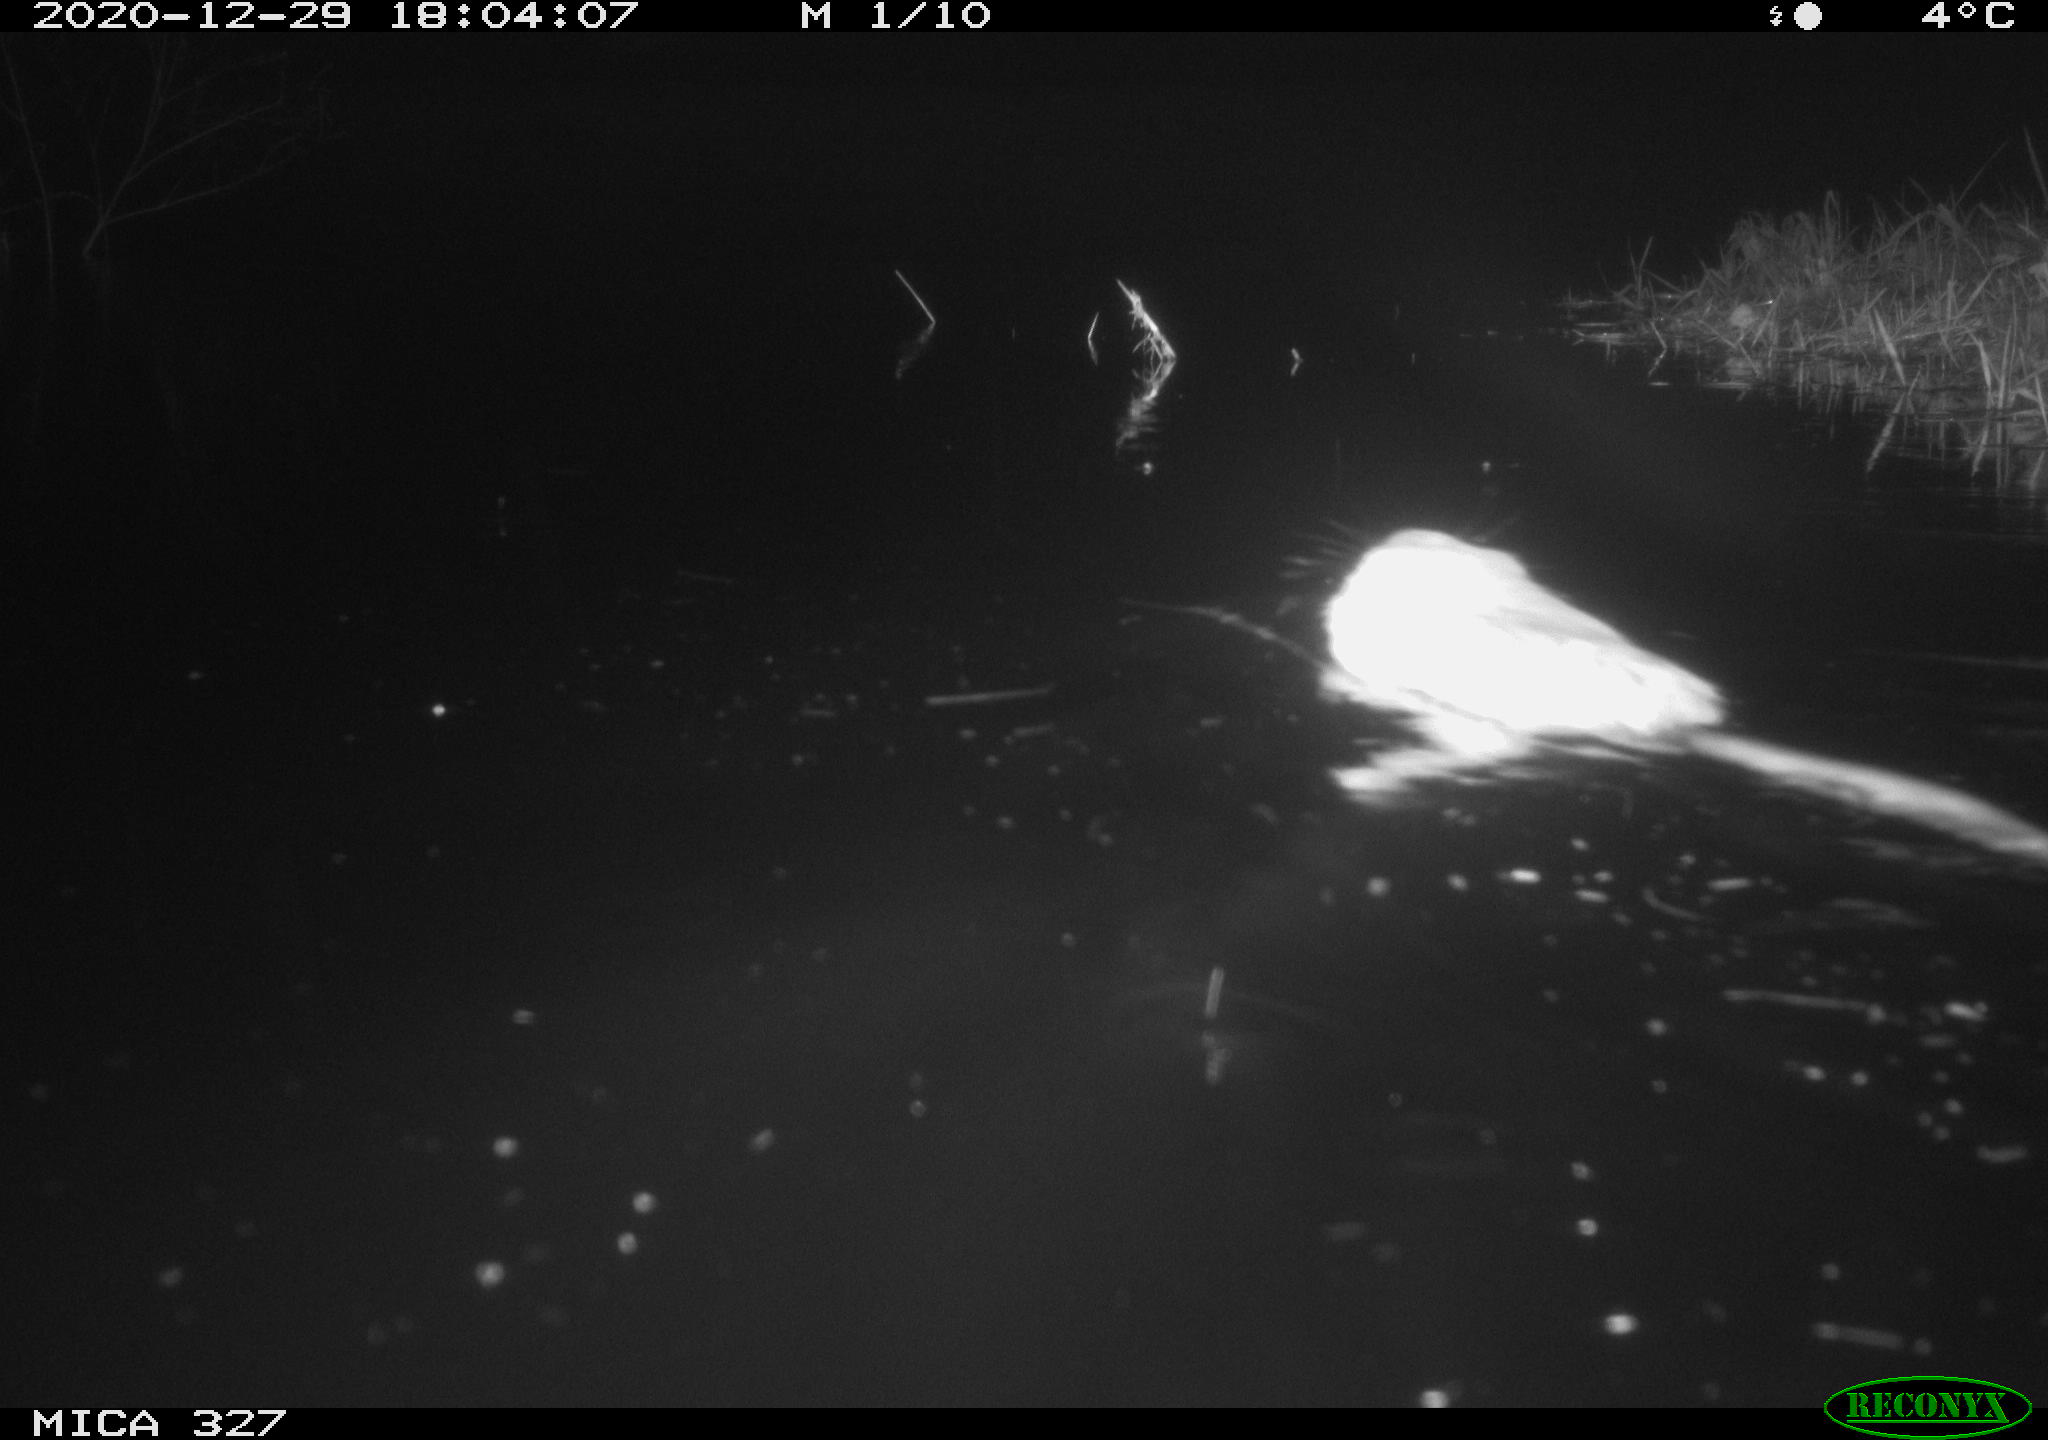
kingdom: Animalia
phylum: Chordata
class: Mammalia
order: Rodentia
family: Cricetidae
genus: Ondatra
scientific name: Ondatra zibethicus
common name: Muskrat
